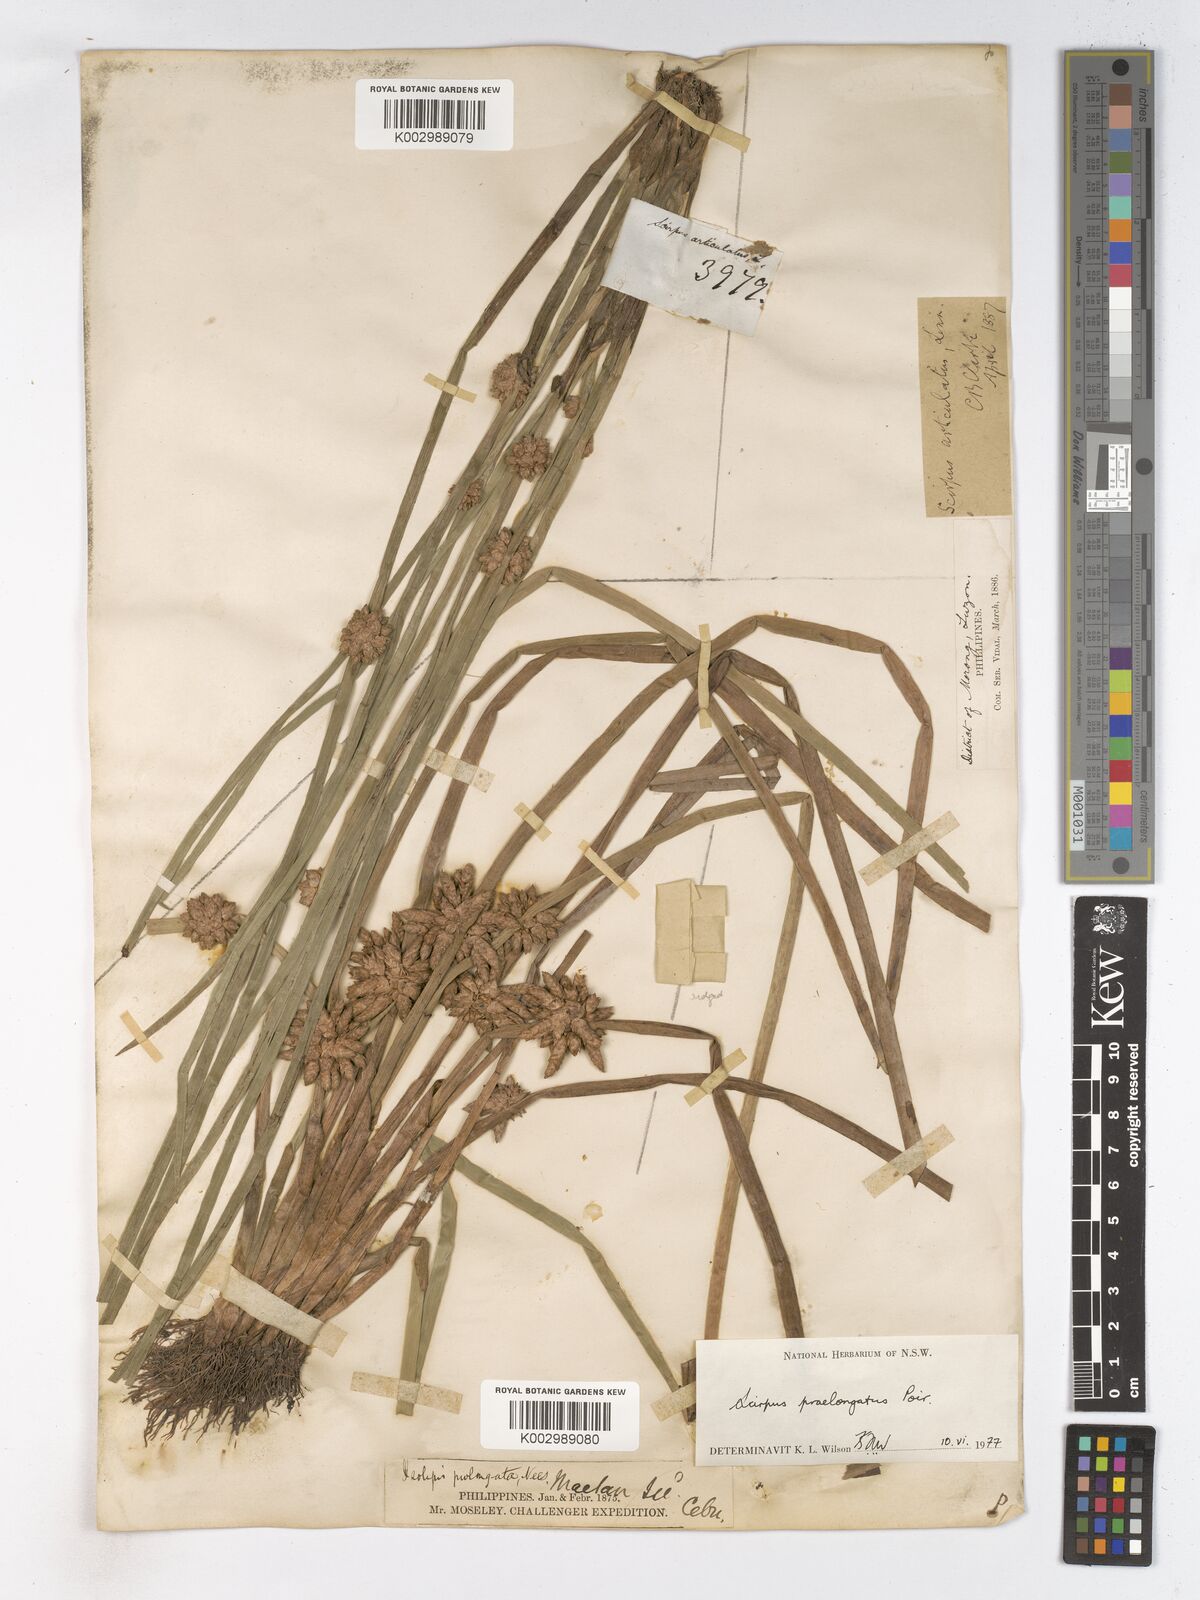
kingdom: Plantae
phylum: Tracheophyta
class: Liliopsida
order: Poales
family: Cyperaceae
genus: Schoenoplectiella
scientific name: Schoenoplectiella praelongata
